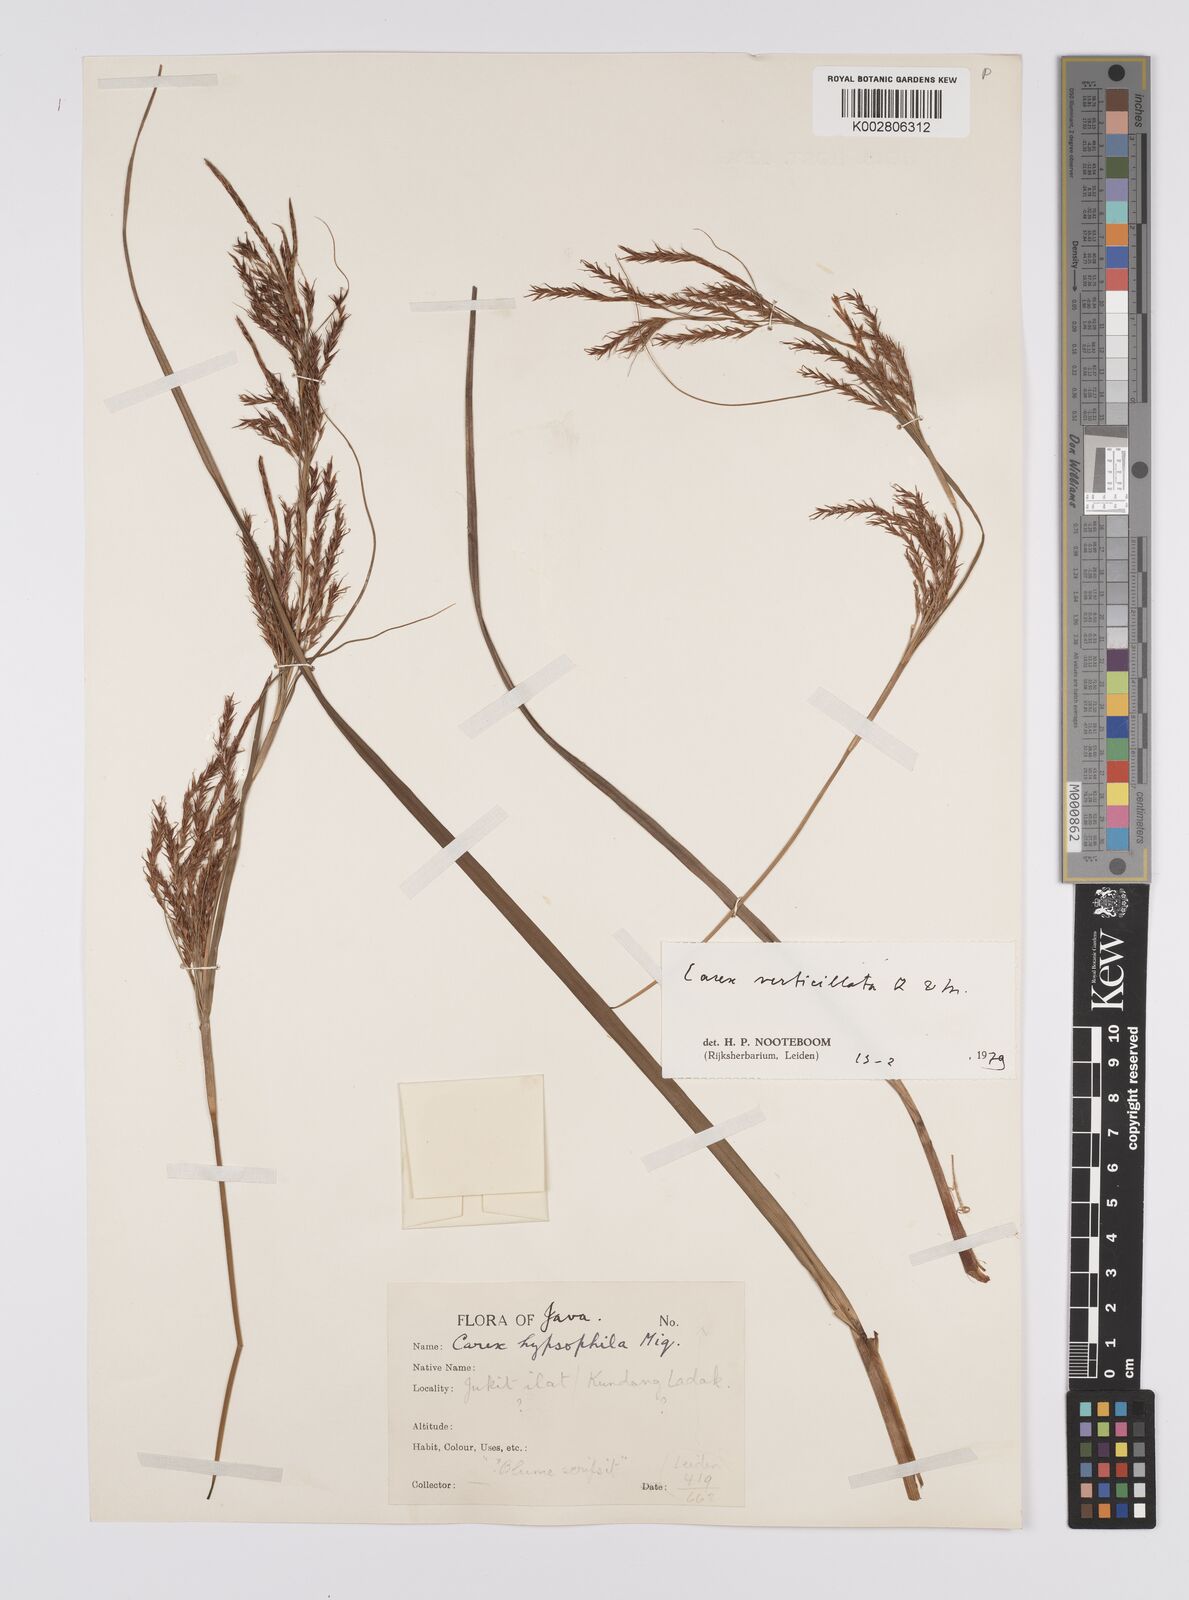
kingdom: Plantae
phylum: Tracheophyta
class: Liliopsida
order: Poales
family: Cyperaceae
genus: Carex
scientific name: Carex verticillata
